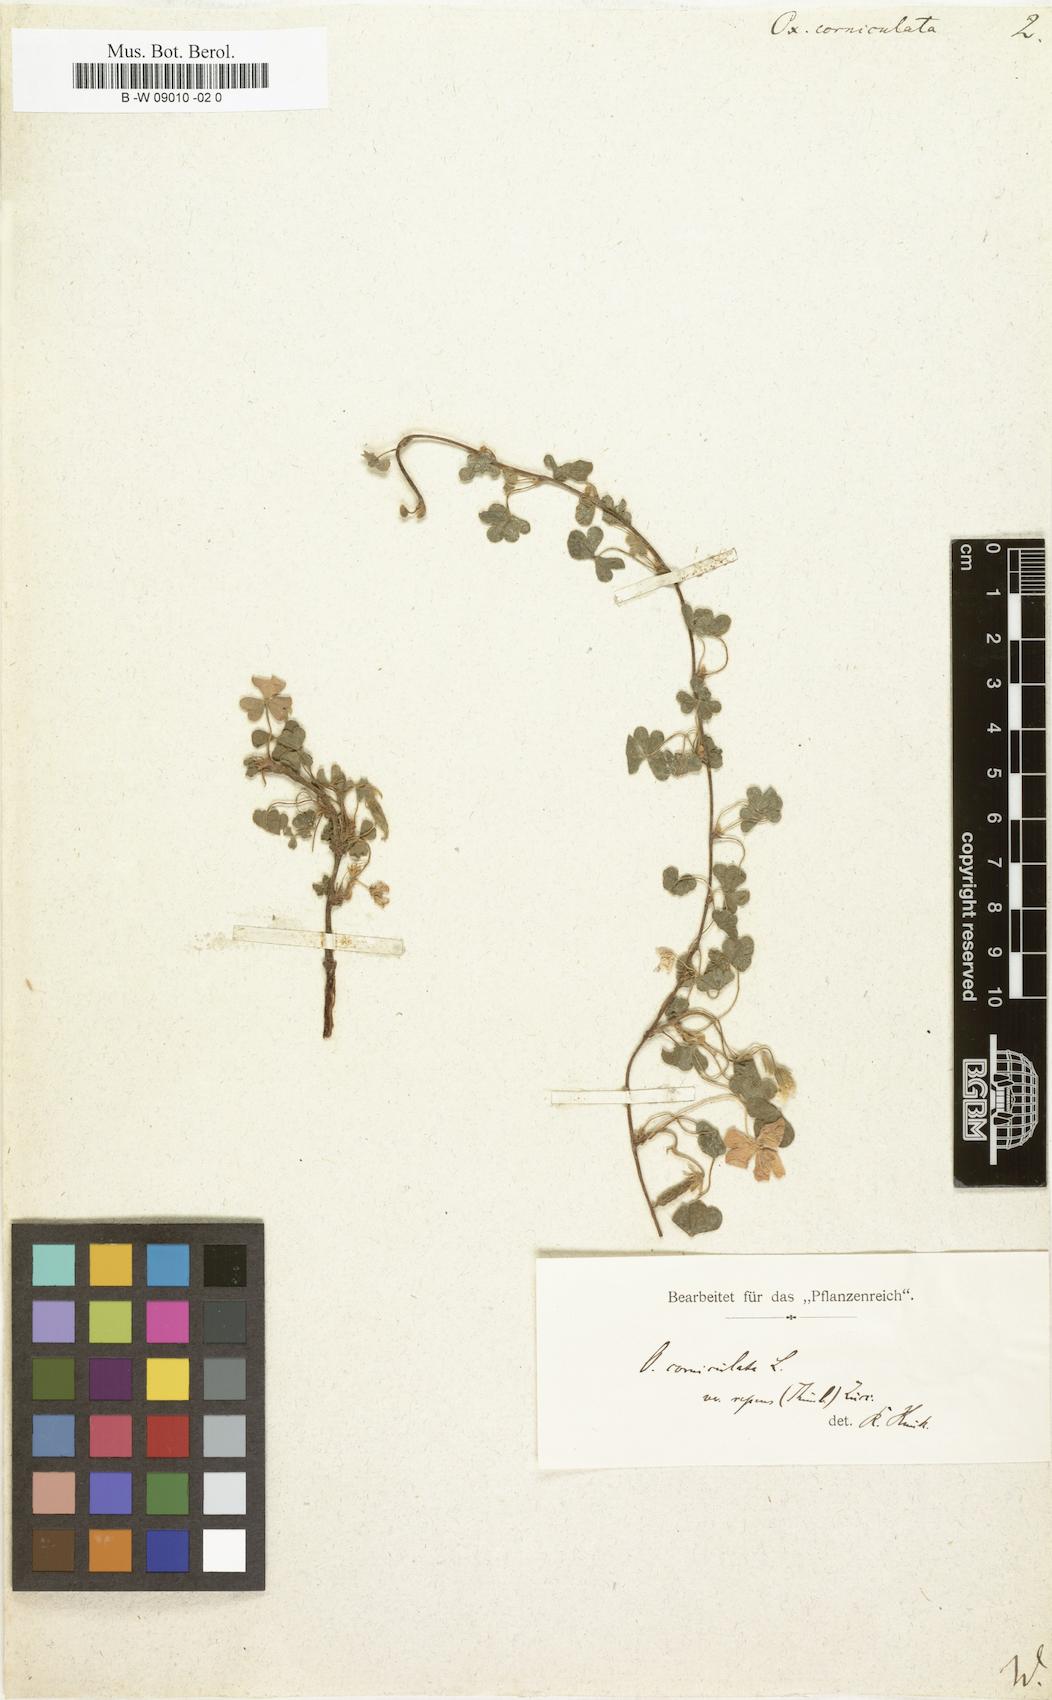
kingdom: Plantae
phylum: Tracheophyta
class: Magnoliopsida
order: Oxalidales
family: Oxalidaceae
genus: Oxalis
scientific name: Oxalis corniculata
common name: Procumbent yellow-sorrel
